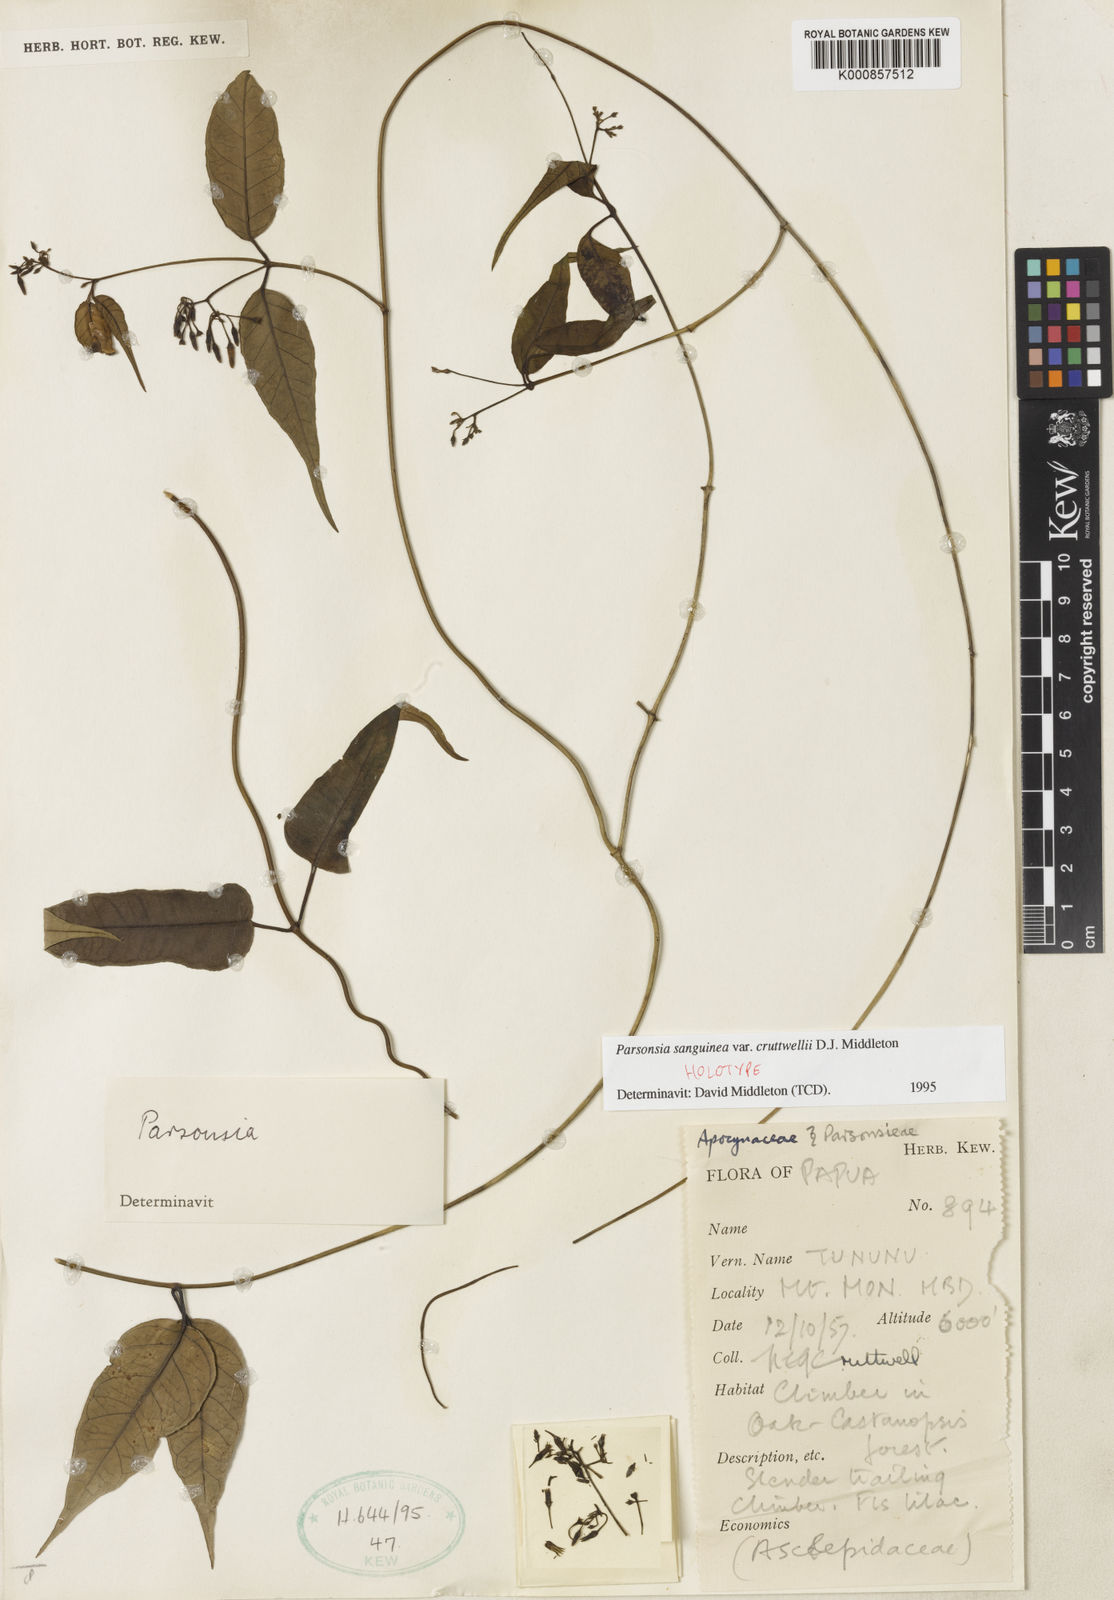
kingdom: Plantae
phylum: Tracheophyta
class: Magnoliopsida
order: Gentianales
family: Apocynaceae
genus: Parsonsia
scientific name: Parsonsia sanguinea
